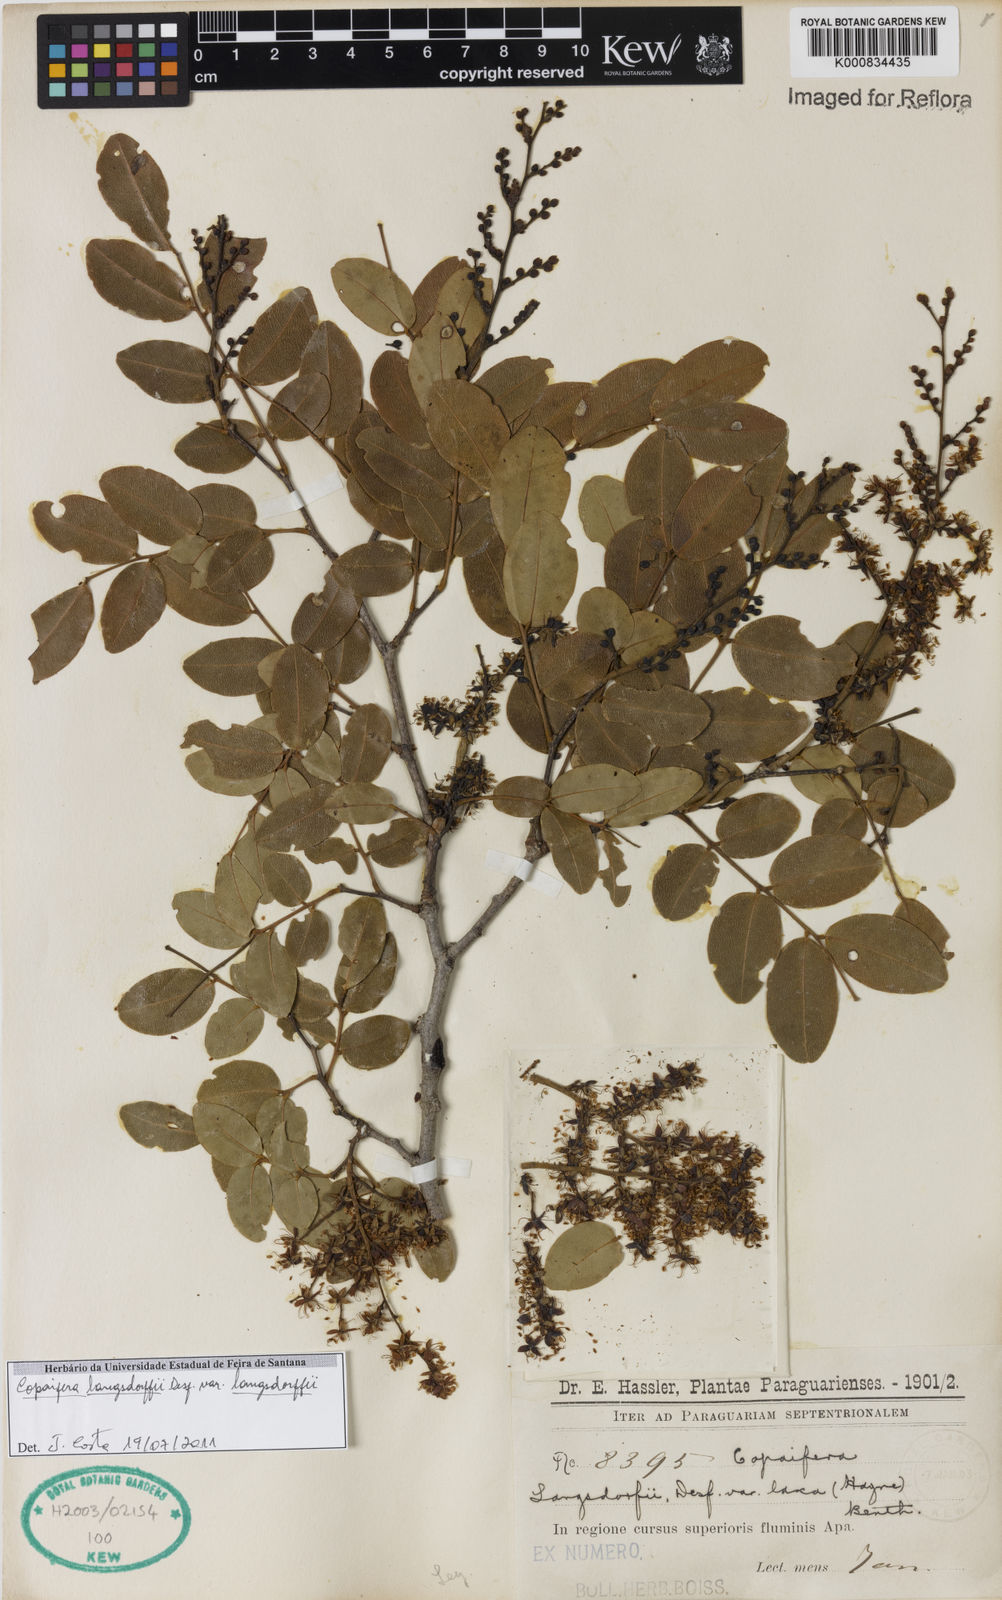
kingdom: Plantae
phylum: Tracheophyta
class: Magnoliopsida
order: Fabales
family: Fabaceae
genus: Copaifera
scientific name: Copaifera langsdorffii
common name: Brazilian diesel tree
